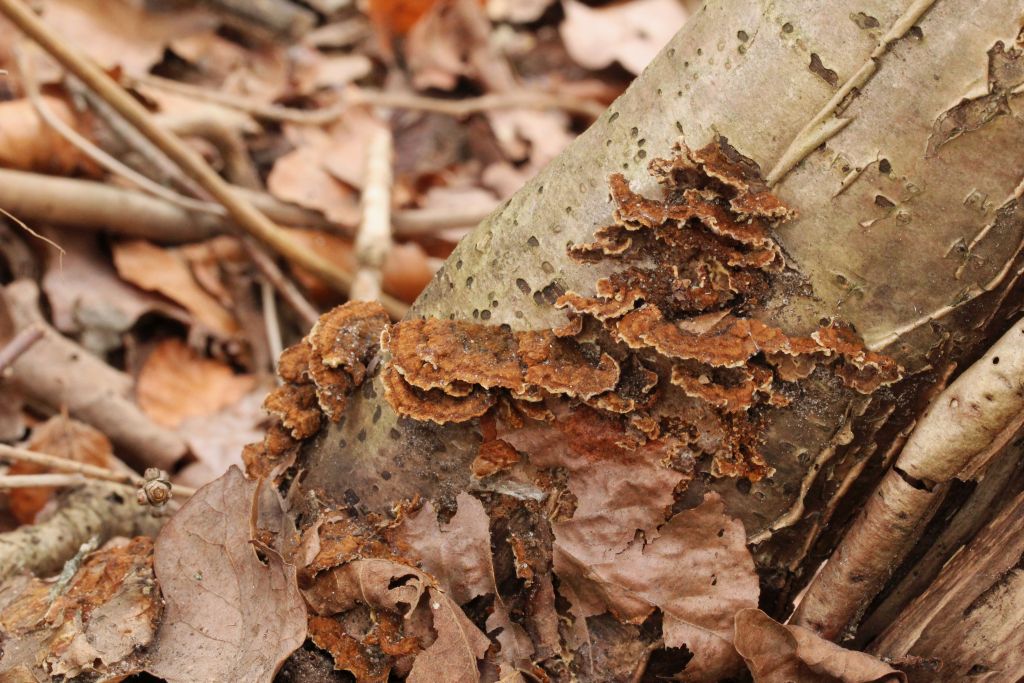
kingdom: Fungi
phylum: Basidiomycota
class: Agaricomycetes
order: Russulales
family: Stereaceae
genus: Stereum
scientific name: Stereum gausapatum
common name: tynd lædersvamp
